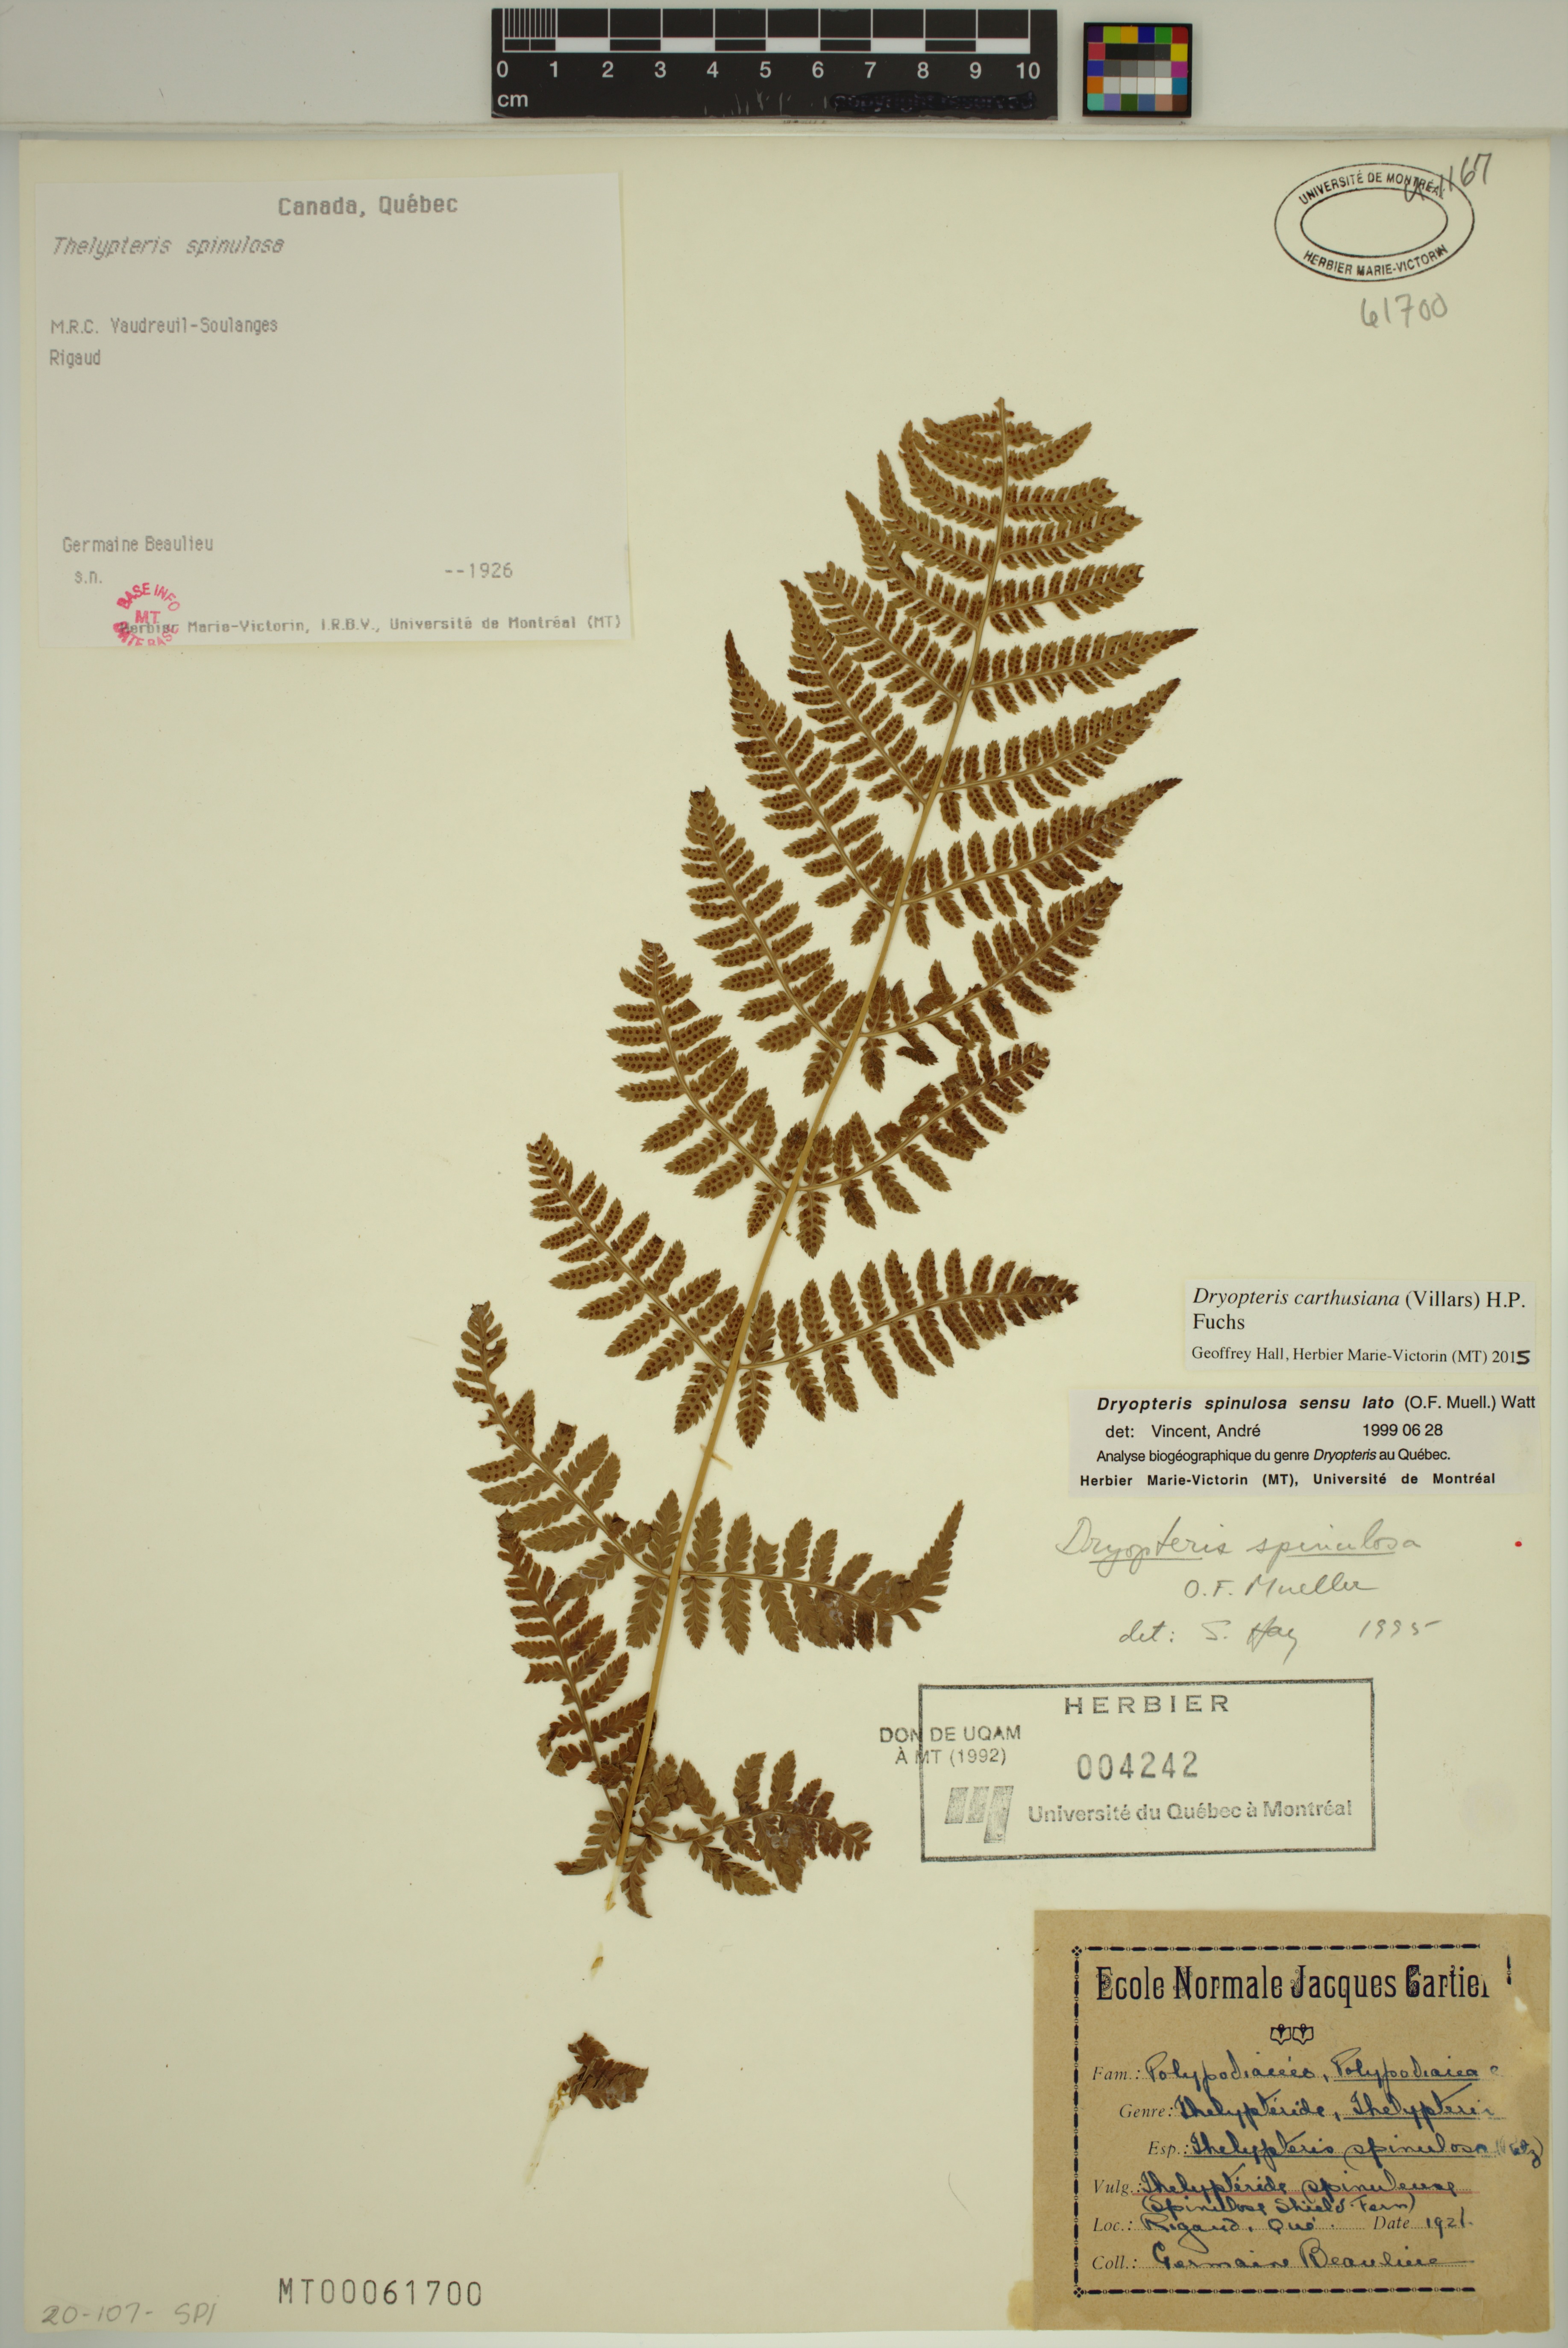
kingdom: Plantae
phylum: Tracheophyta
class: Polypodiopsida
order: Polypodiales
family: Dryopteridaceae
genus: Dryopteris
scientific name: Dryopteris carthusiana
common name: Narrow buckler-fern
